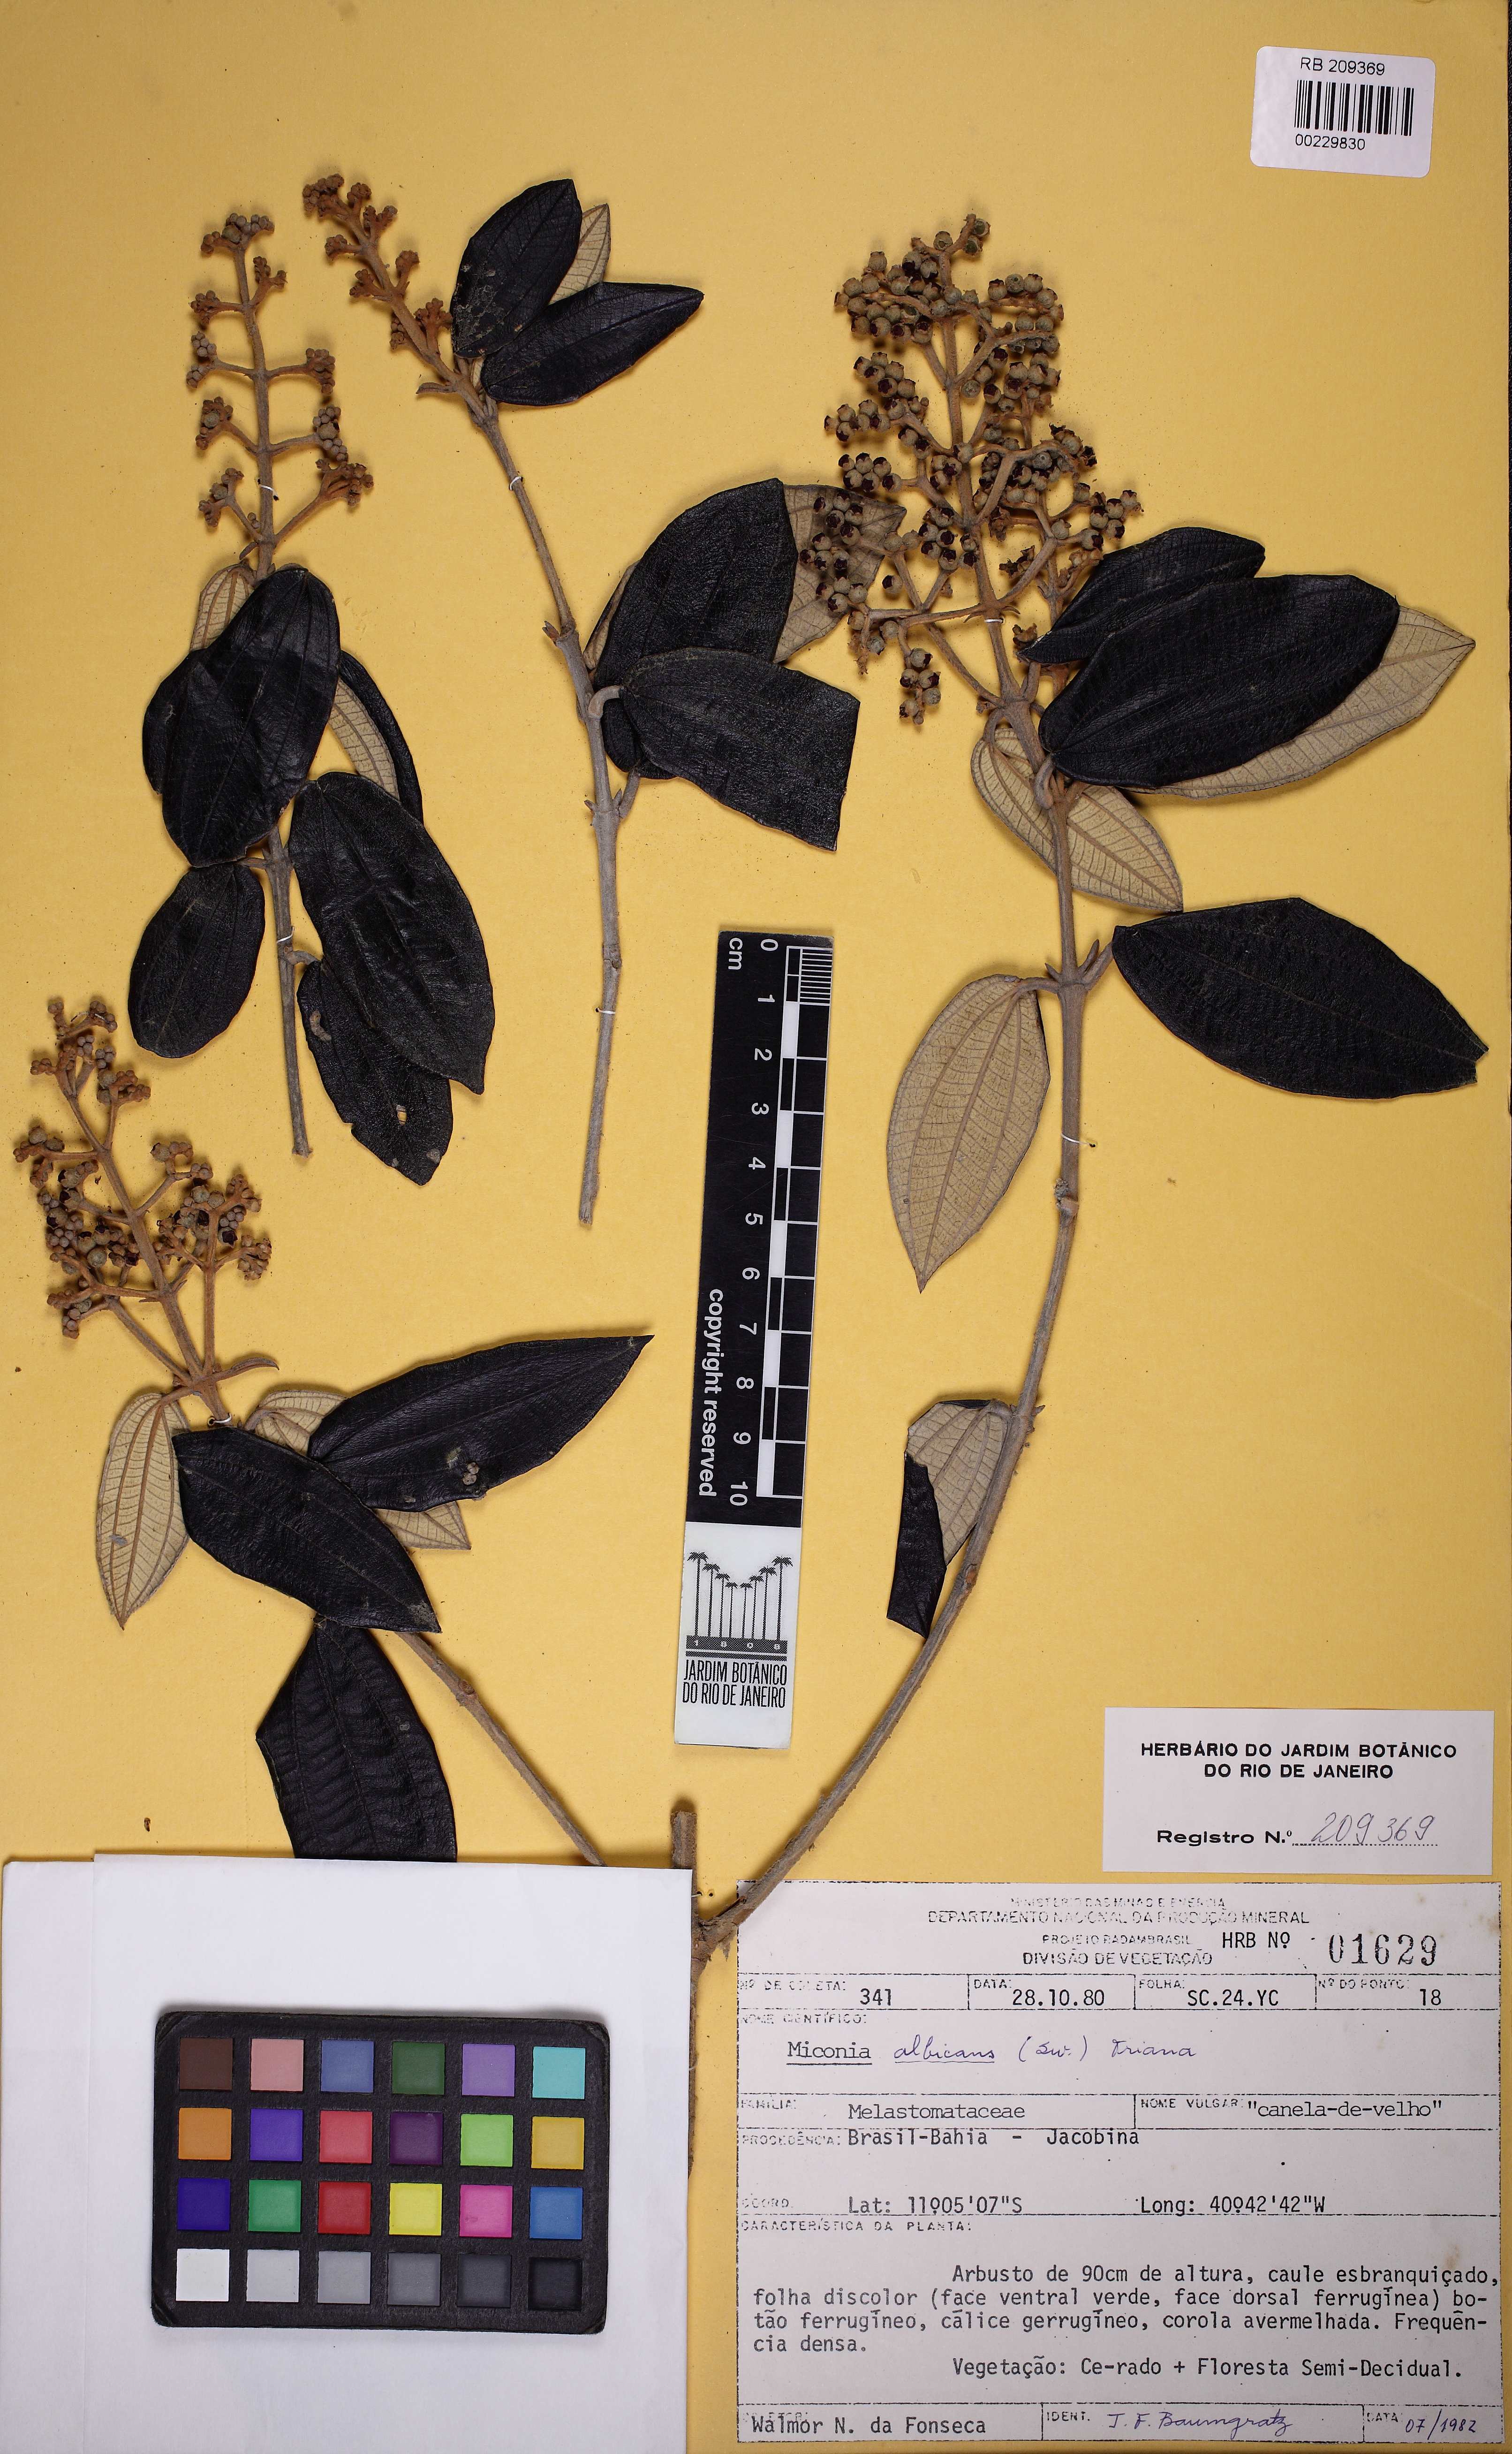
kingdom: Plantae
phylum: Tracheophyta
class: Magnoliopsida
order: Myrtales
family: Melastomataceae
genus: Miconia
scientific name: Miconia albicans
